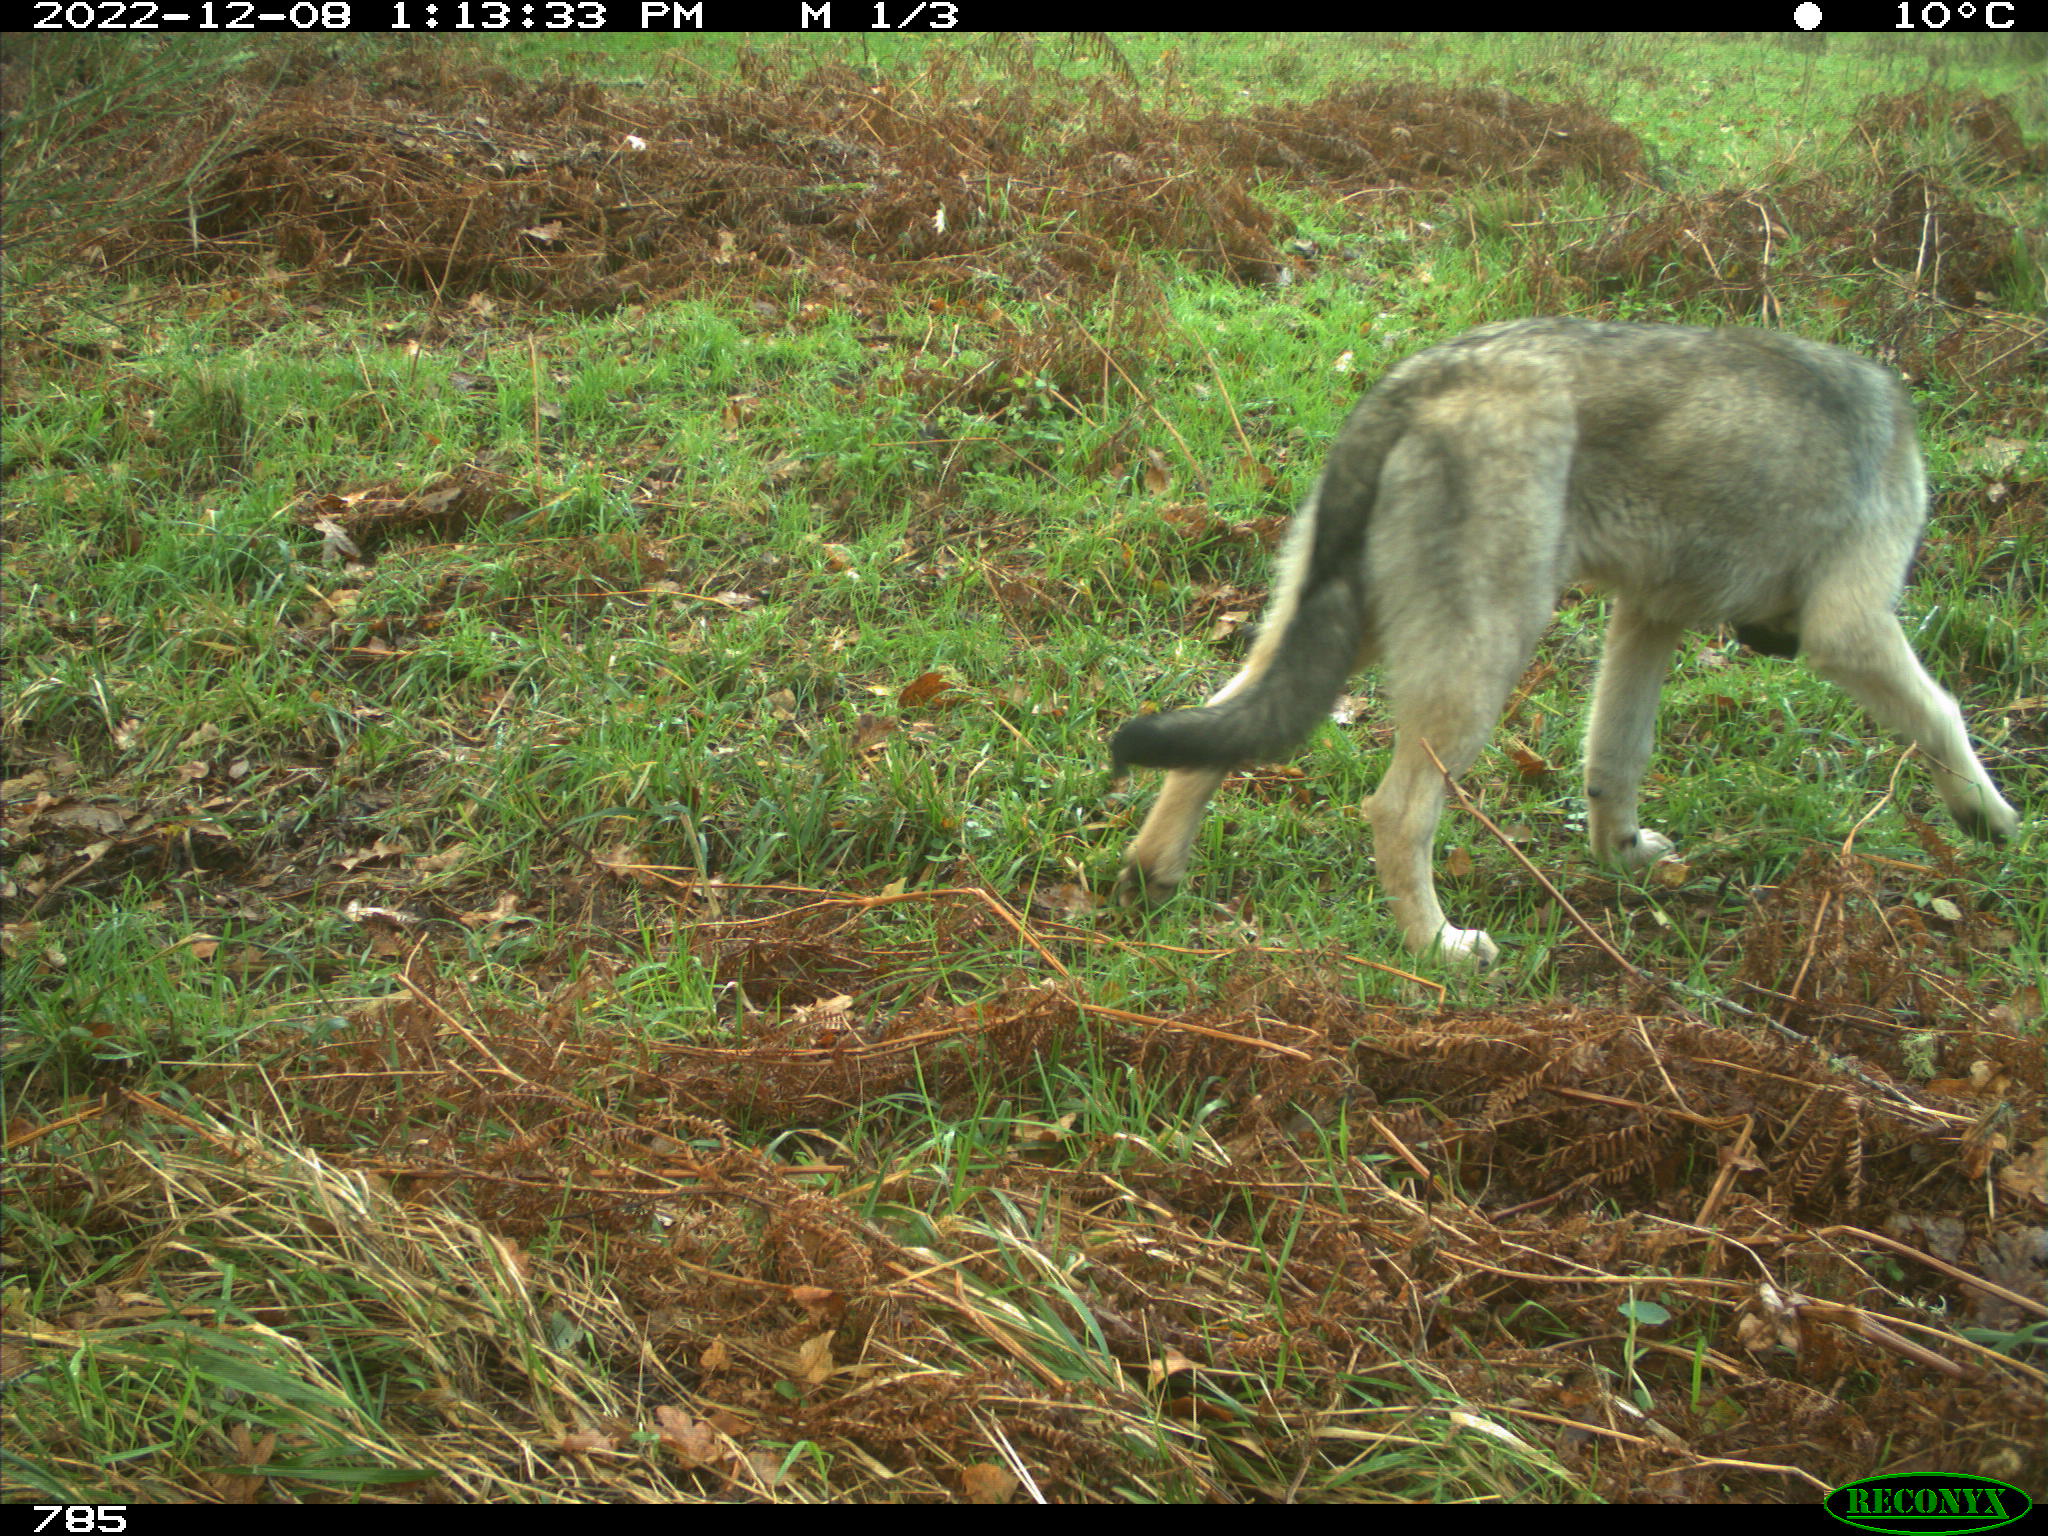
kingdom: Animalia
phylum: Chordata
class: Mammalia
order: Carnivora
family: Canidae
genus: Canis
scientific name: Canis lupus
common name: Gray wolf
